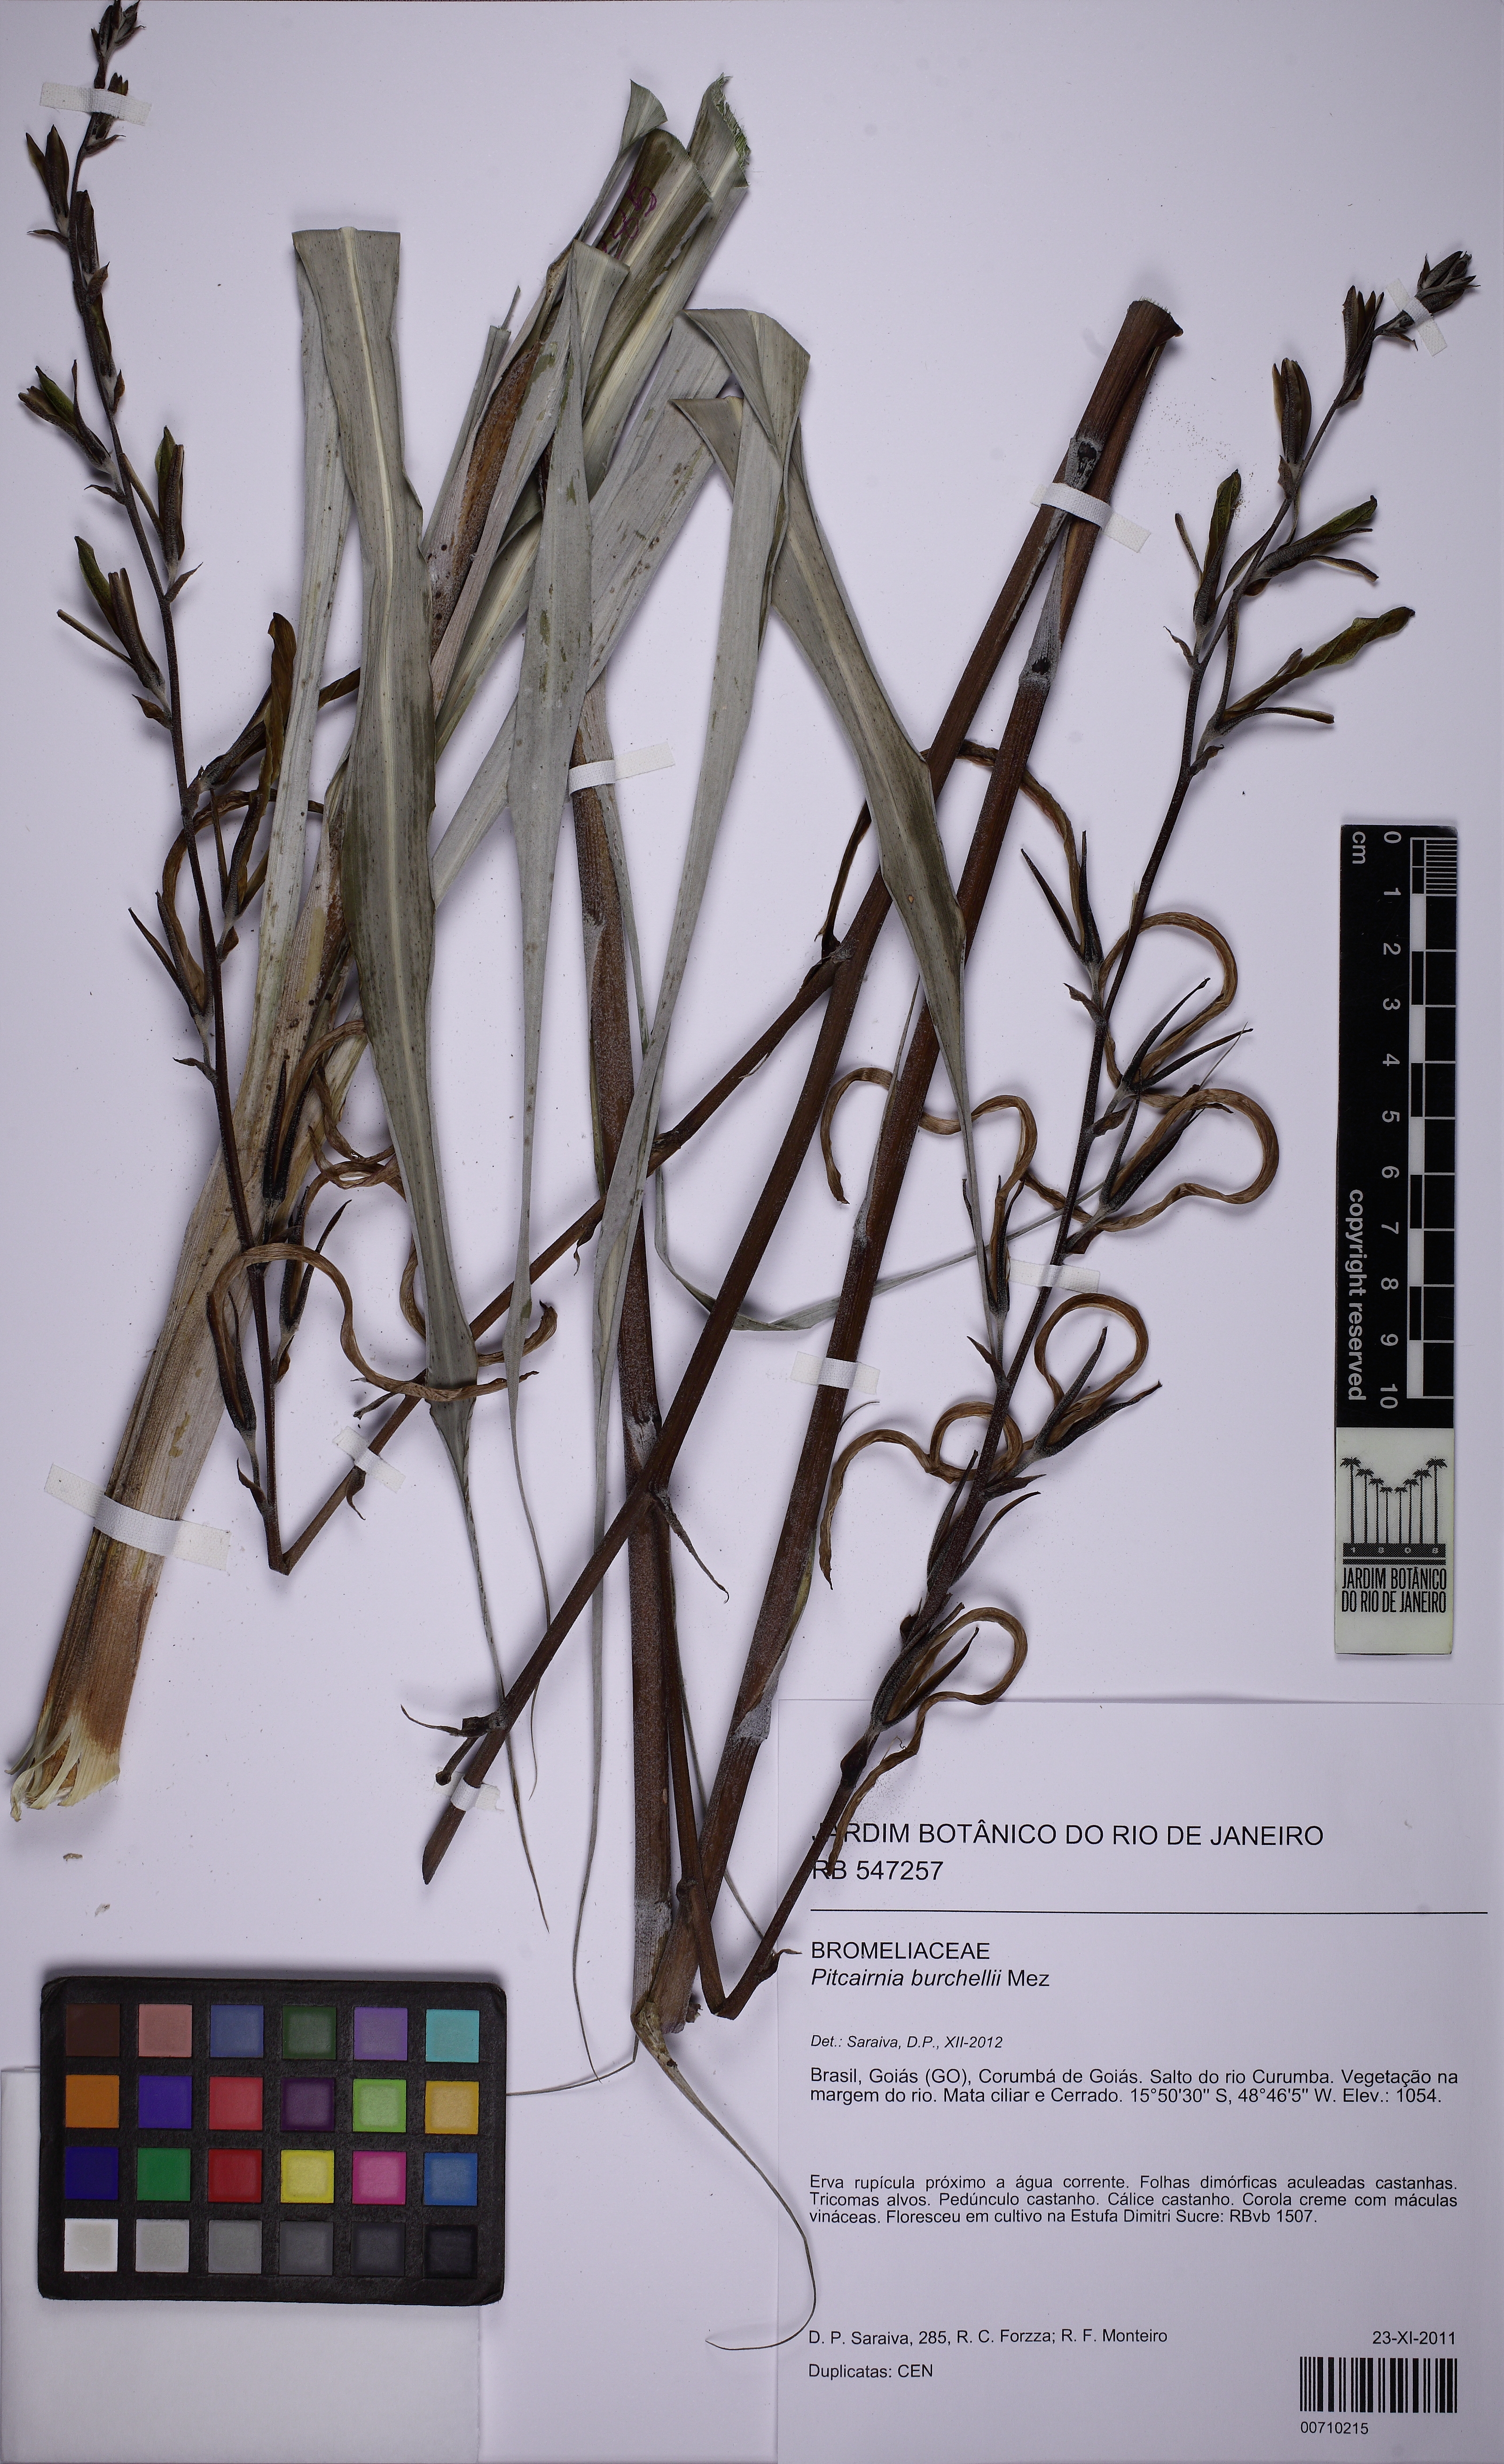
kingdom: Plantae
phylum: Tracheophyta
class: Liliopsida
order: Poales
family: Bromeliaceae
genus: Pitcairnia
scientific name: Pitcairnia lanuginosa
